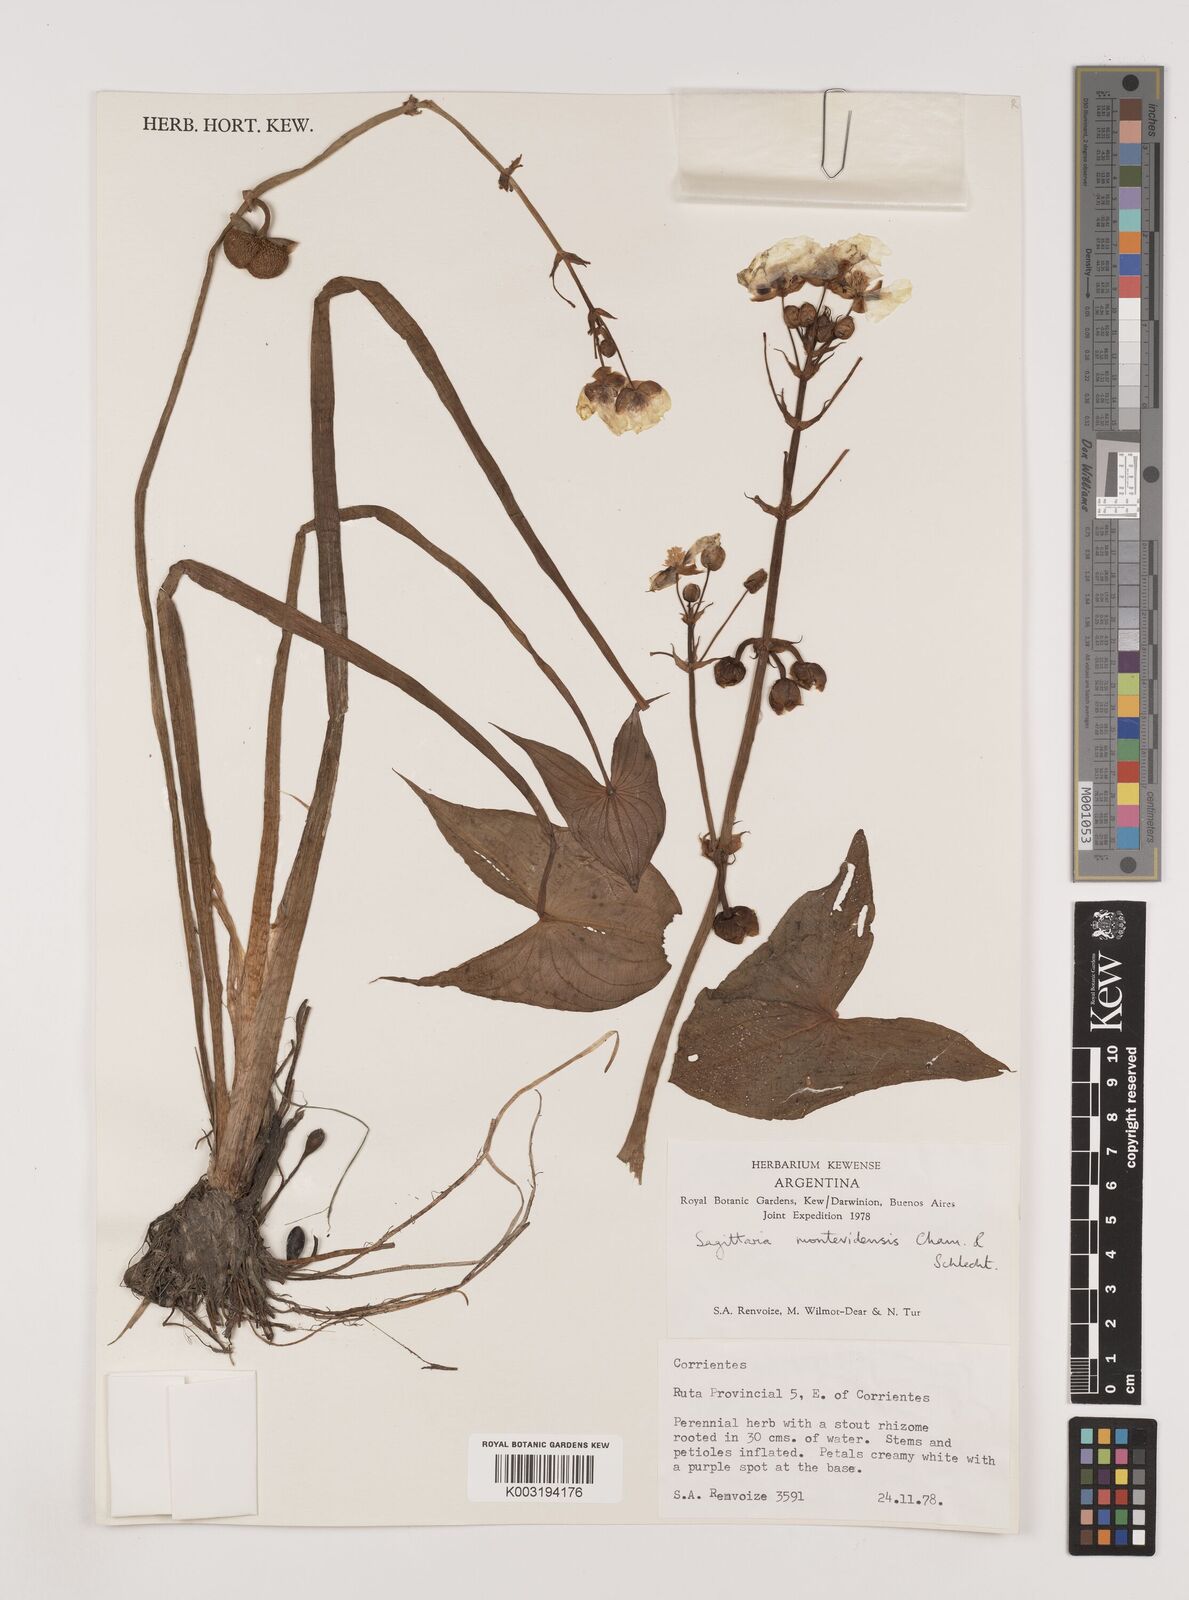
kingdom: Plantae
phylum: Tracheophyta
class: Liliopsida
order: Alismatales
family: Alismataceae
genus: Sagittaria
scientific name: Sagittaria montevidensis
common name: Giant arrowhead
